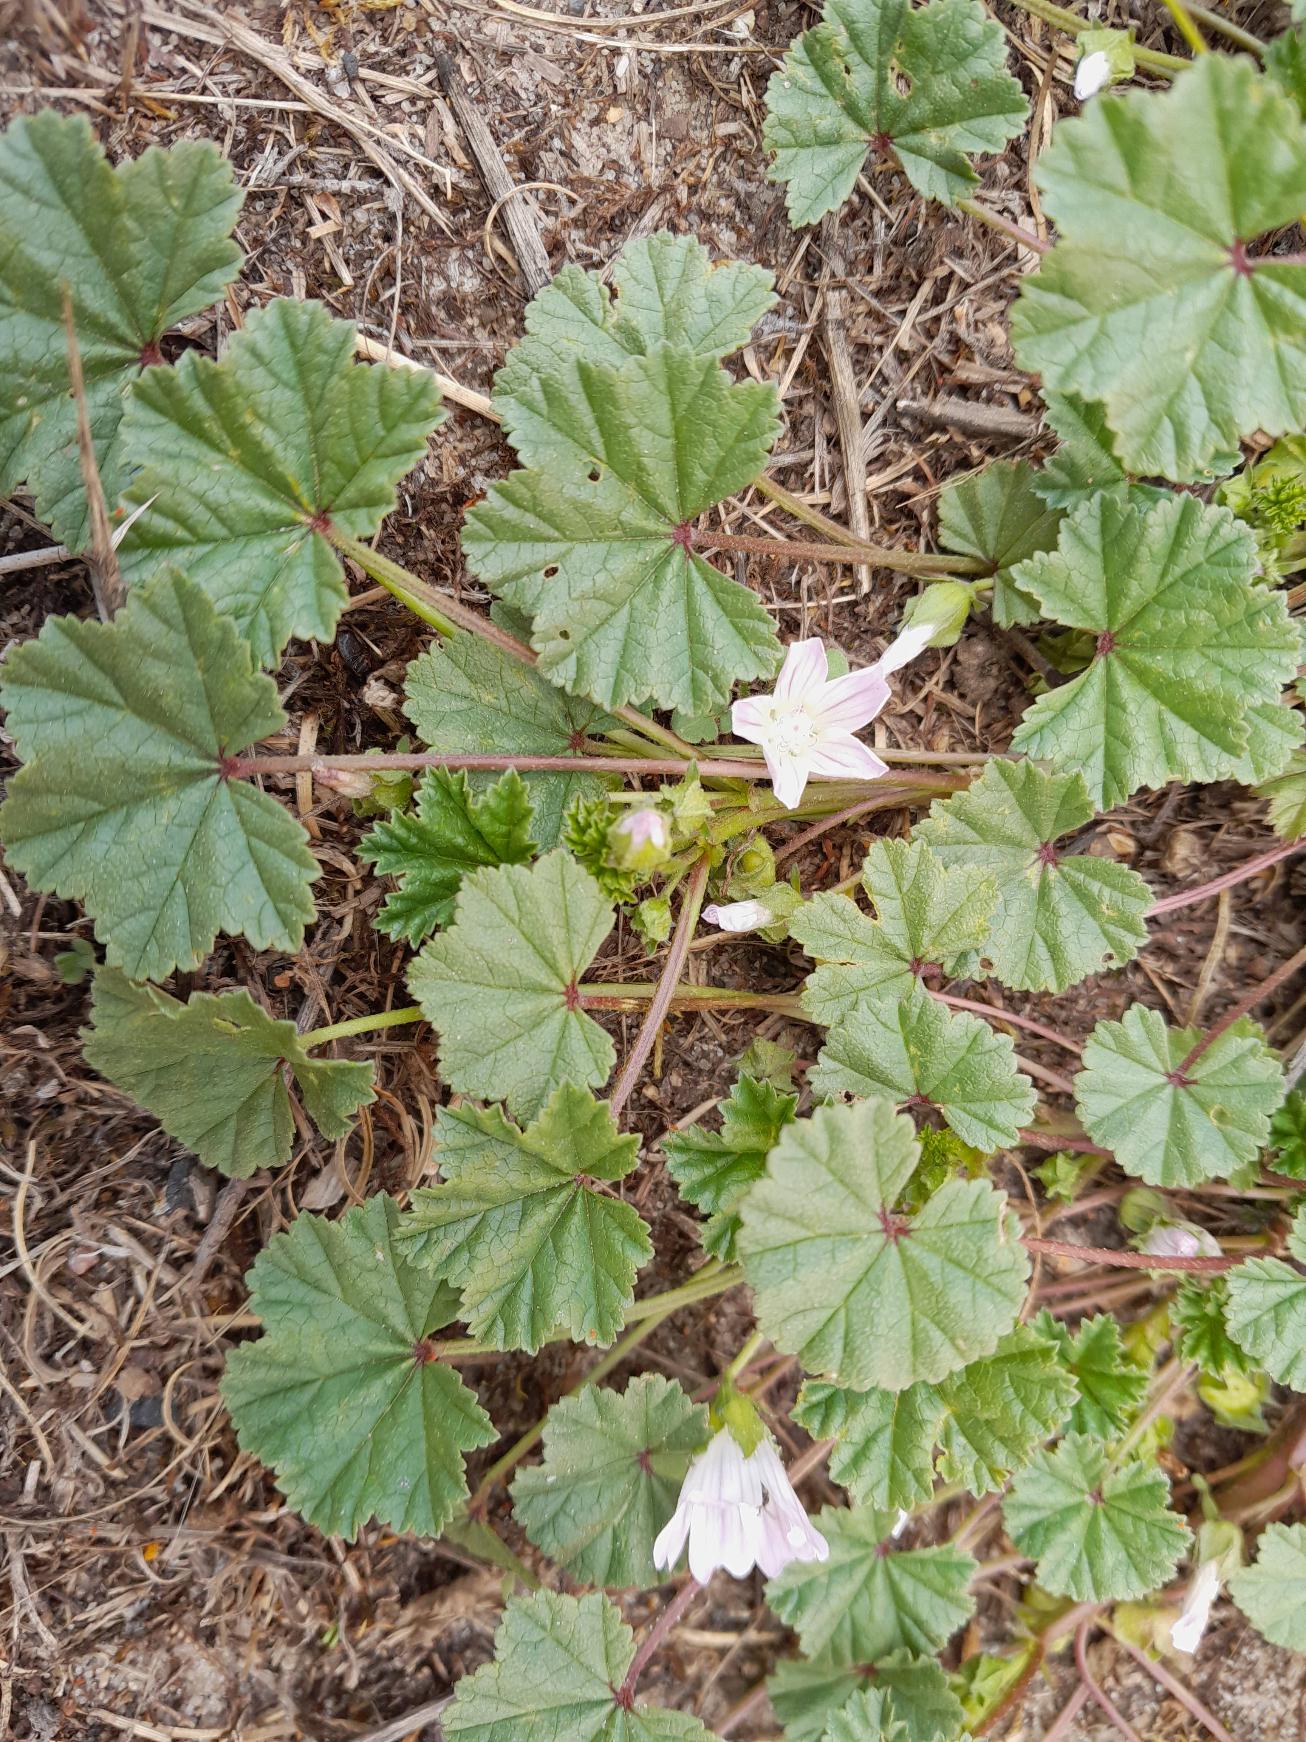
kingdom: Plantae
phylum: Tracheophyta
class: Magnoliopsida
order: Malvales
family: Malvaceae
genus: Malva
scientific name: Malva neglecta
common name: Rundbladet katost
